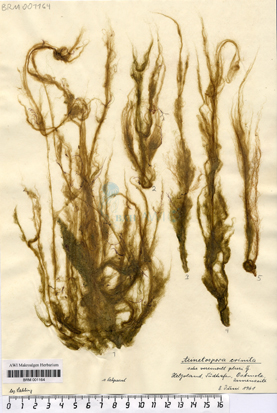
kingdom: Chromista
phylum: Ochrophyta
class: Phaeophyceae
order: Ectocarpales
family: Acinetosporaceae
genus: Acinetospora
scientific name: Acinetospora crinita
